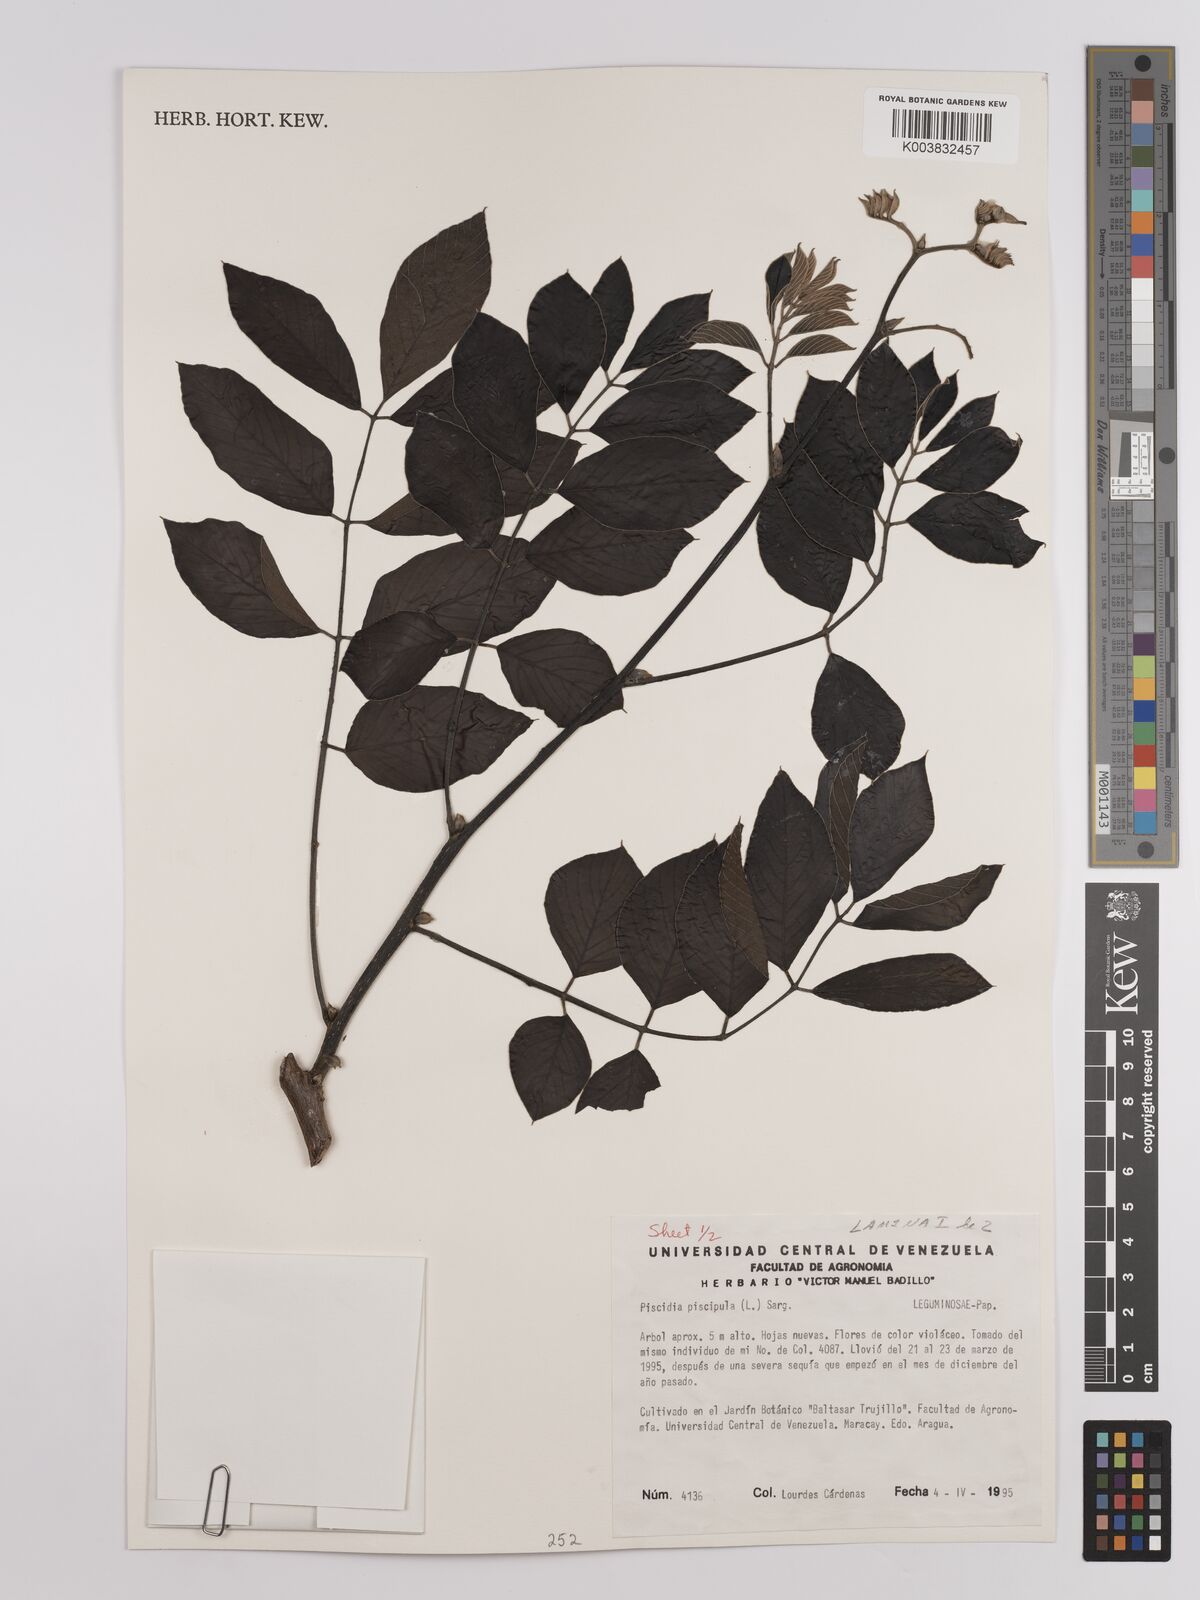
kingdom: Plantae
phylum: Tracheophyta
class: Magnoliopsida
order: Fabales
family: Fabaceae
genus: Piscidia
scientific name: Piscidia piscipula
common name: Florida fishpoison tree
